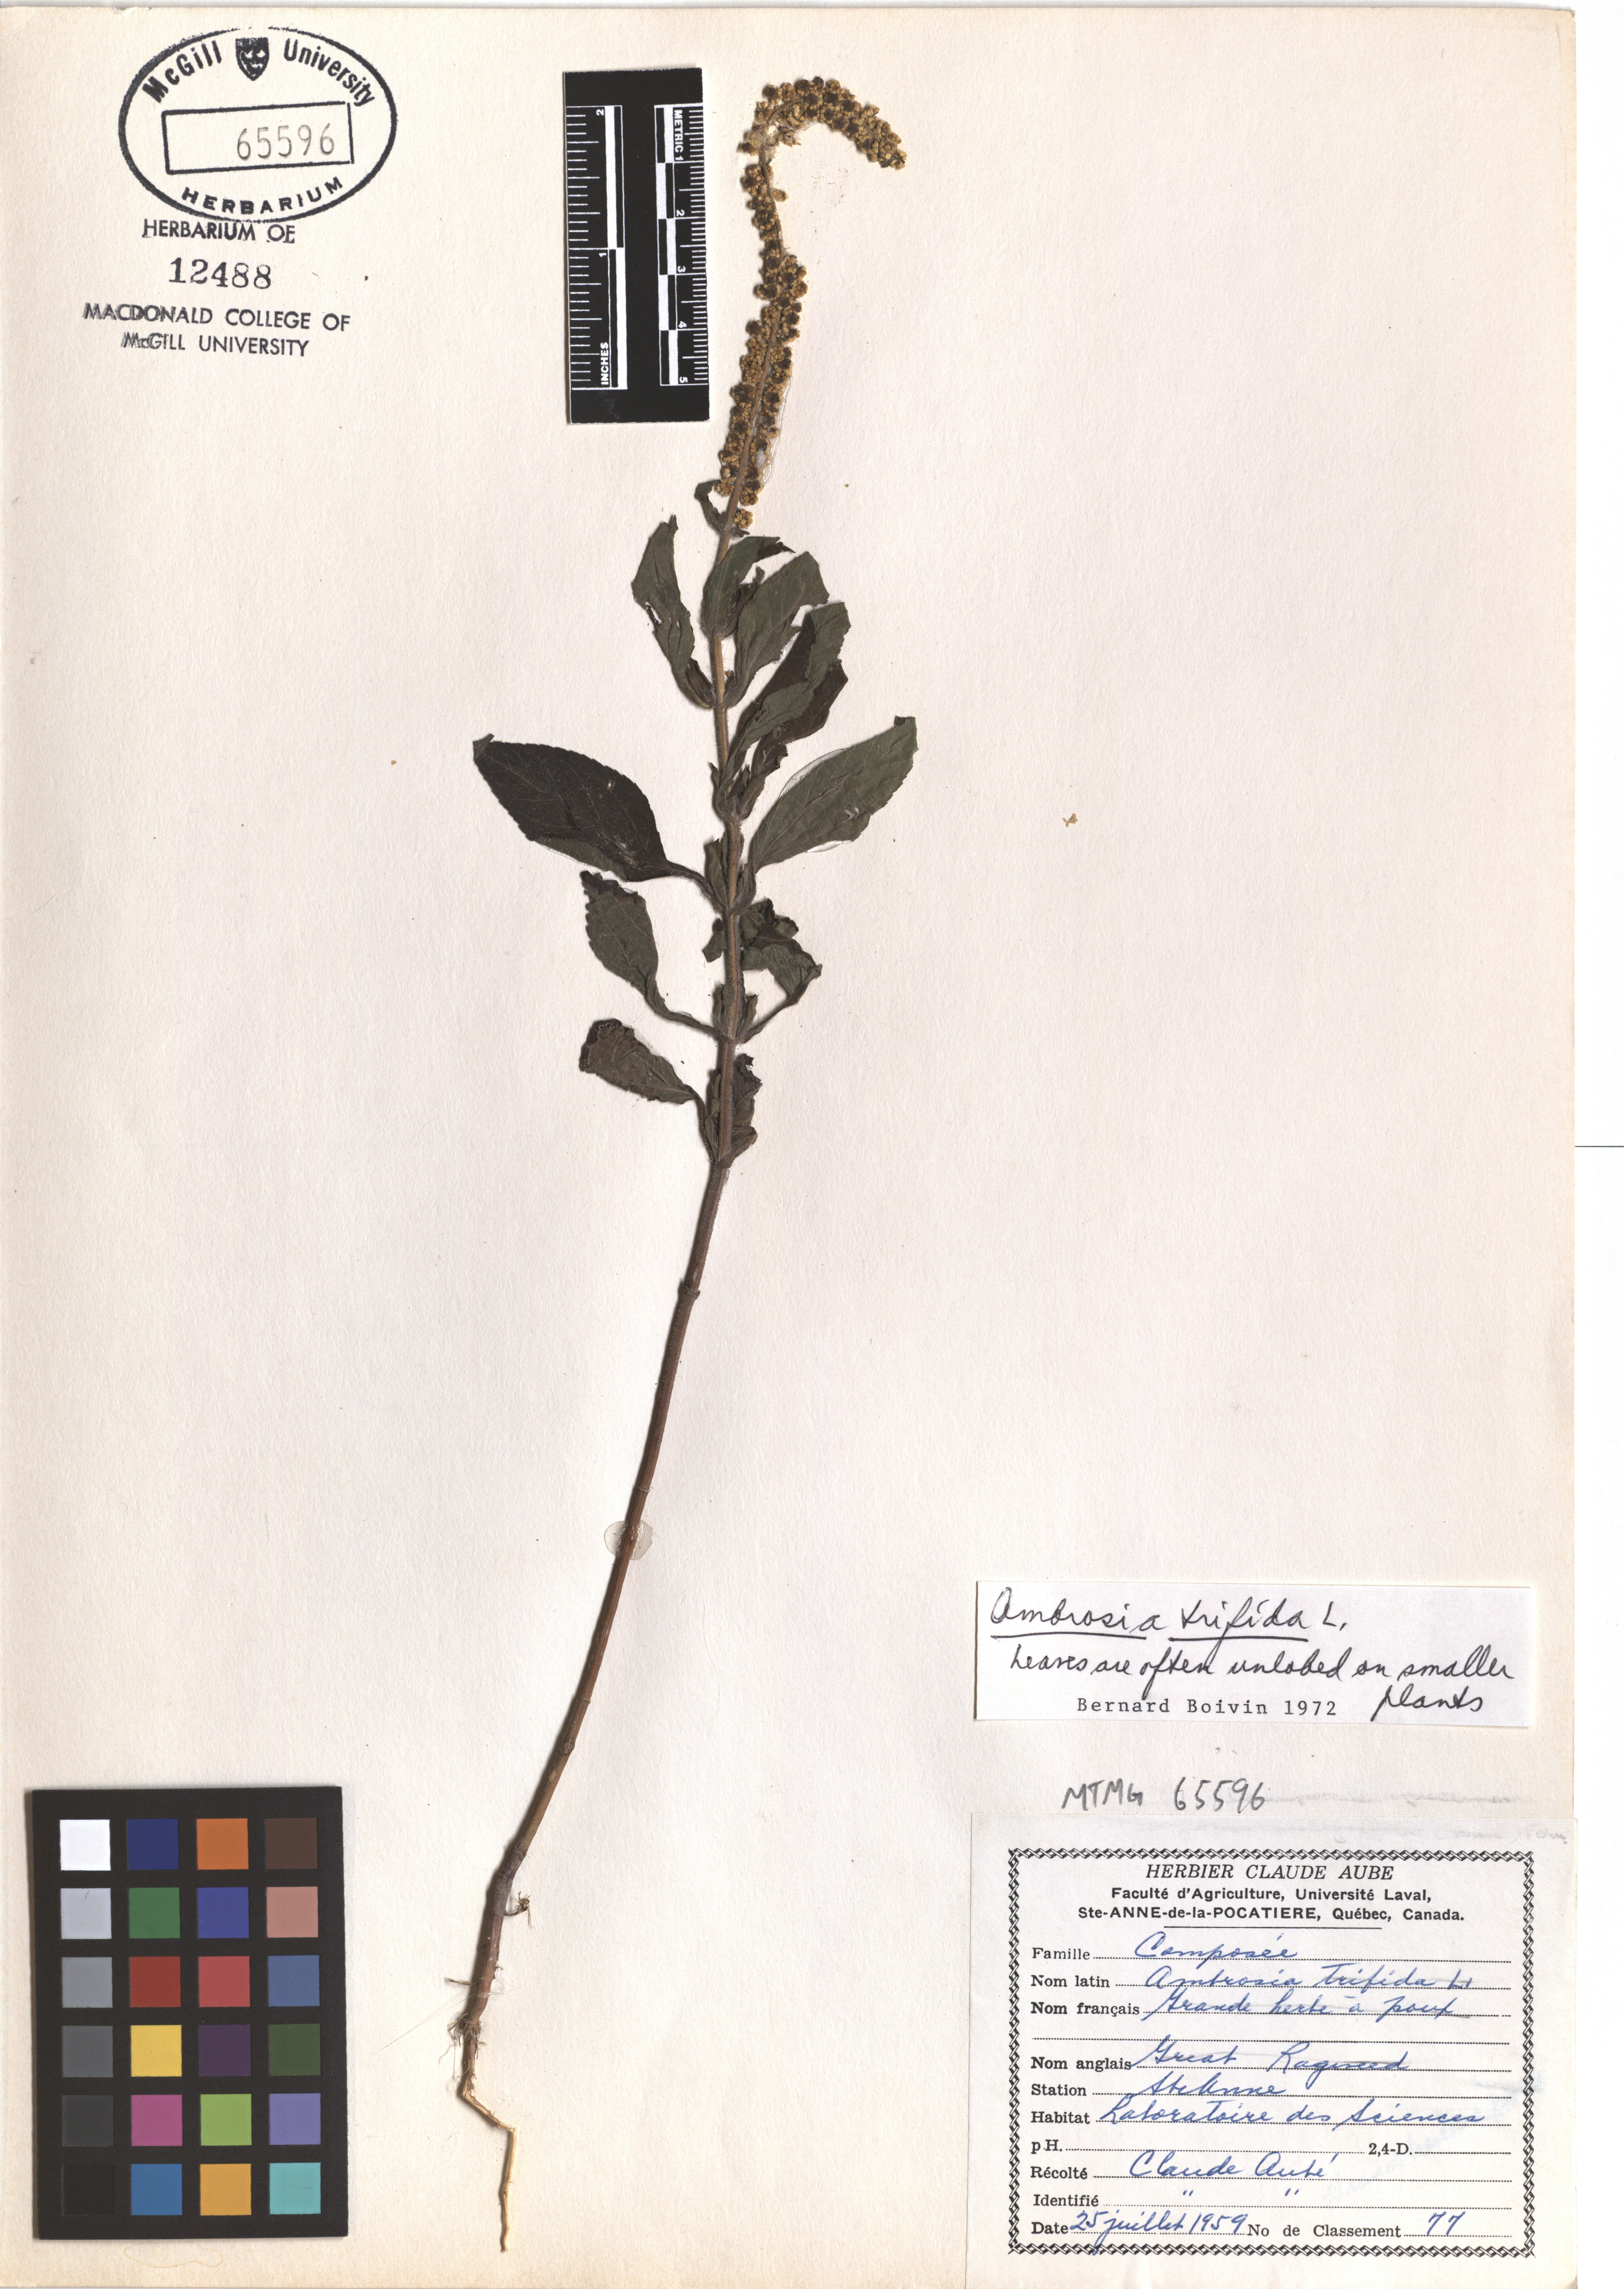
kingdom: Plantae
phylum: Tracheophyta
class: Magnoliopsida
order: Asterales
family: Asteraceae
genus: Ambrosia
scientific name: Ambrosia trifida
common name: Giant ragweed
